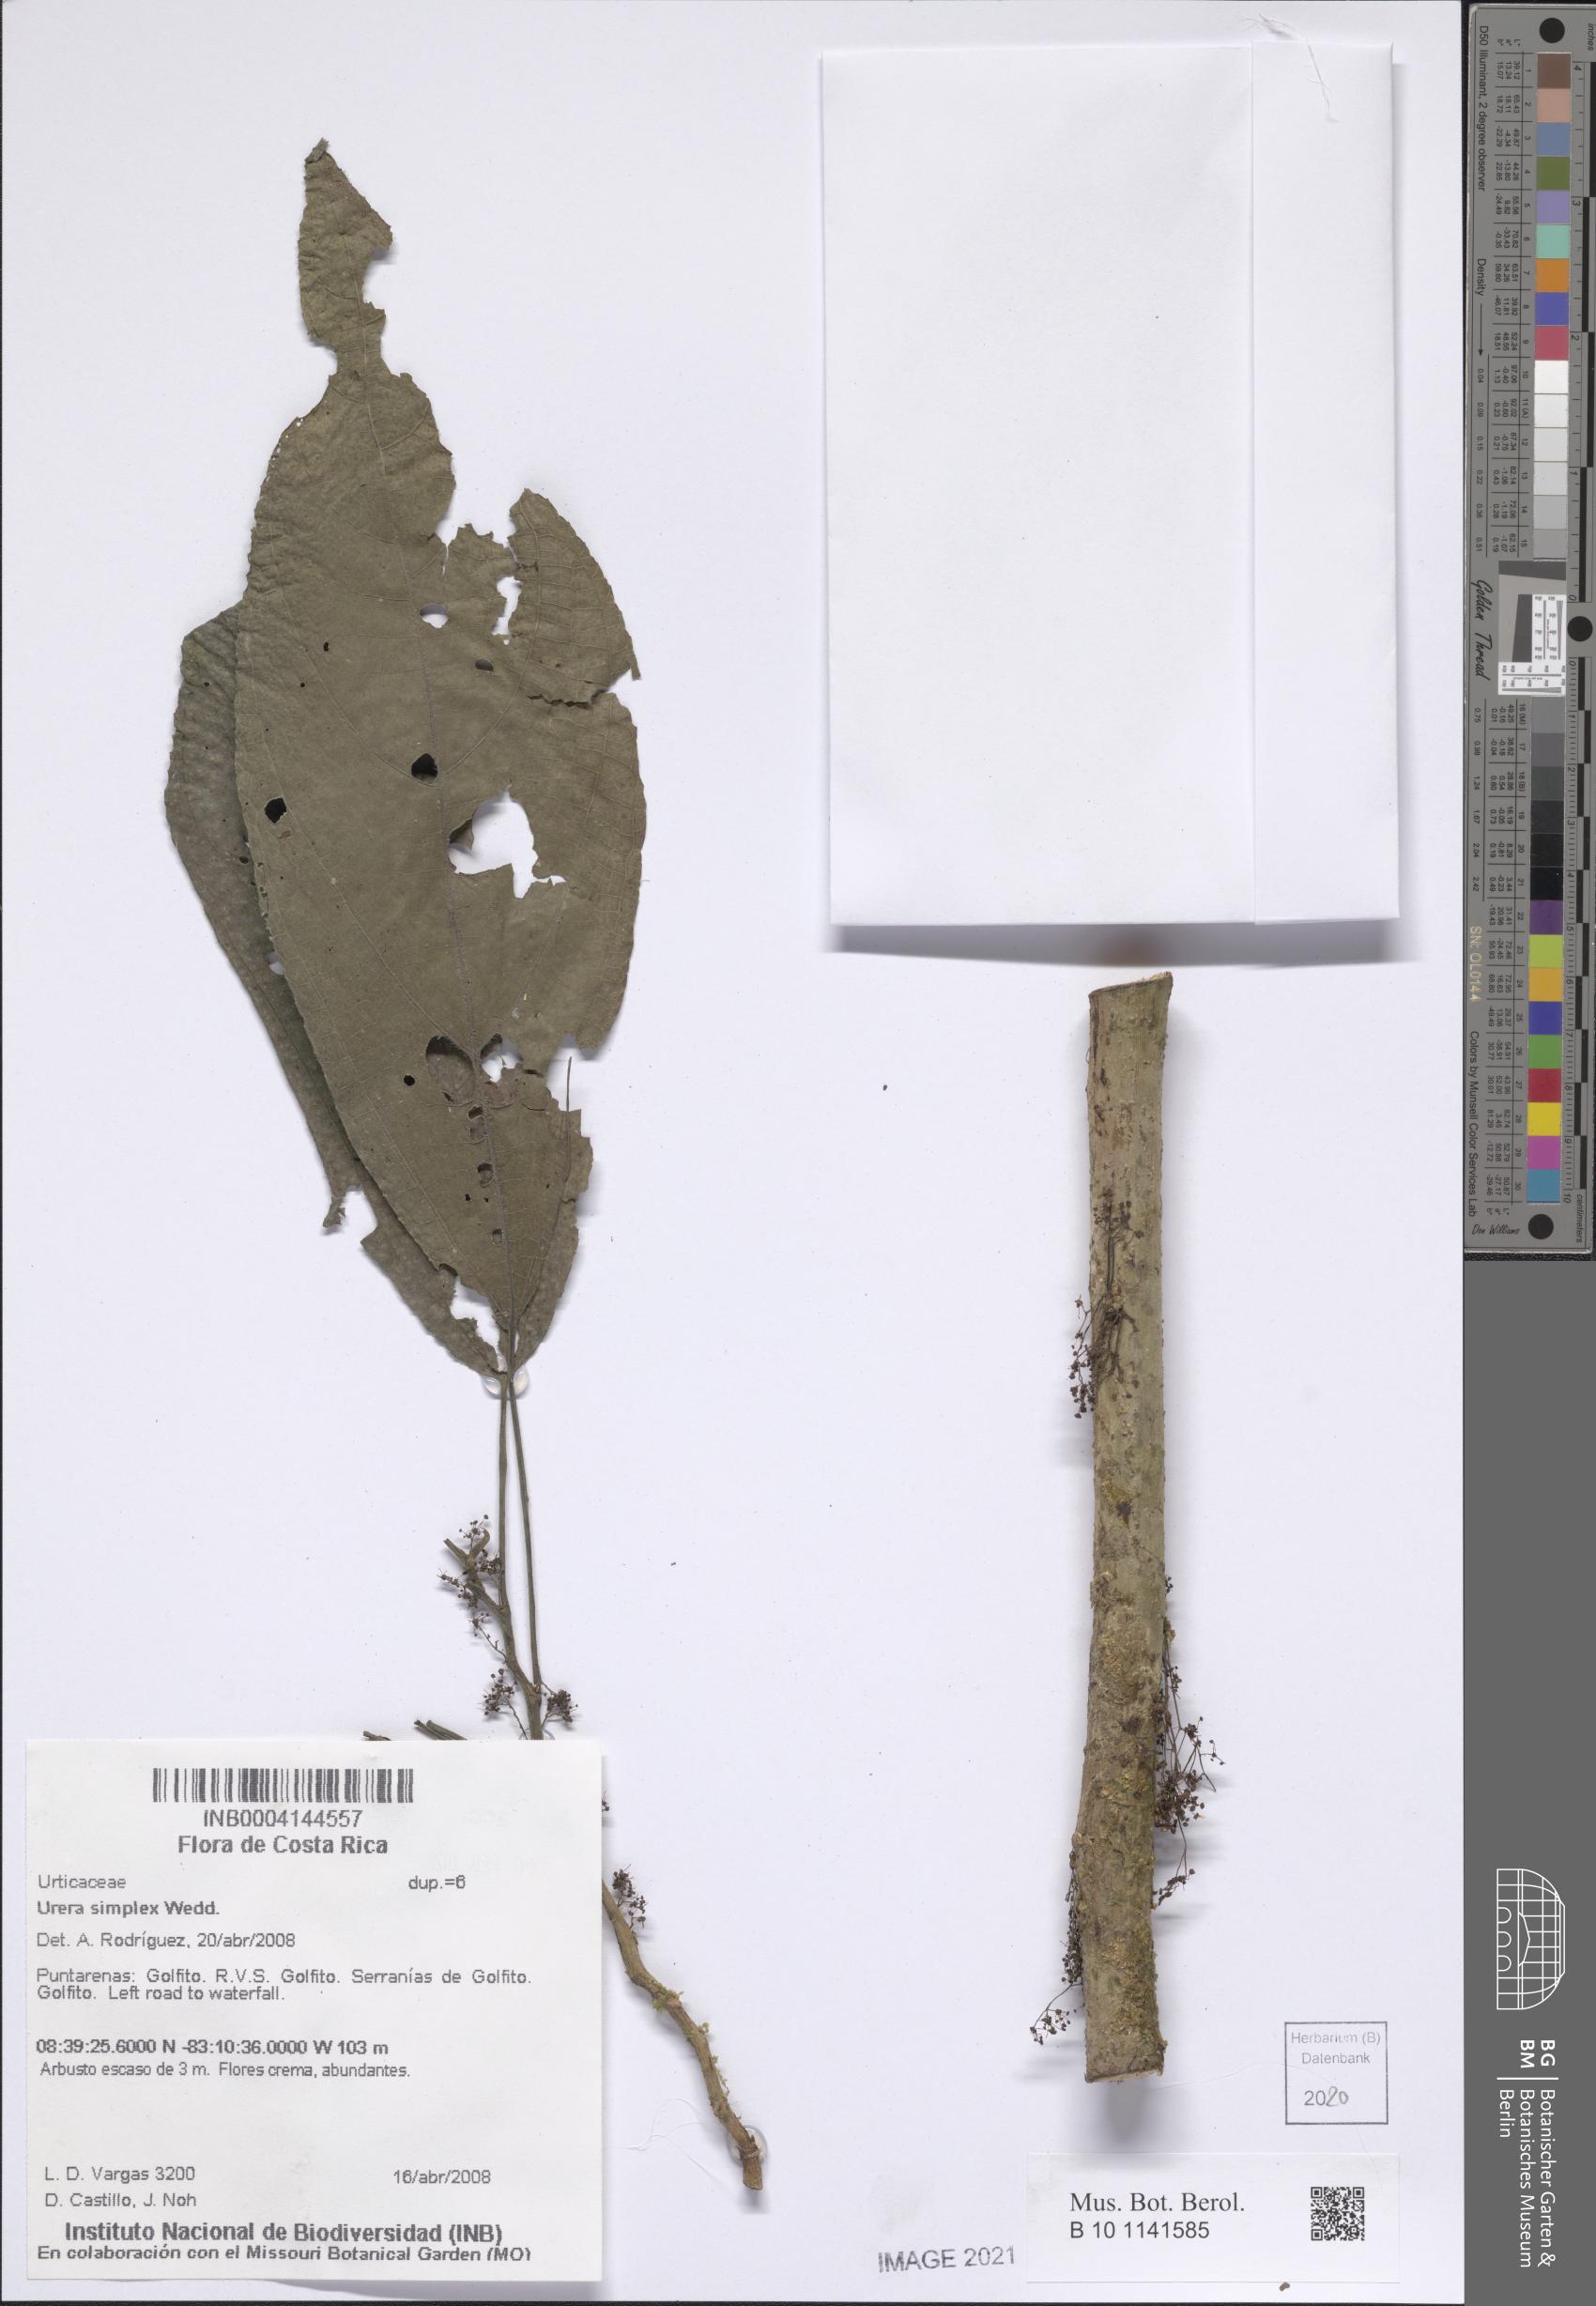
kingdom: Plantae
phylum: Tracheophyta
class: Magnoliopsida
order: Rosales
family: Urticaceae
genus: Urera
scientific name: Urera simplex
